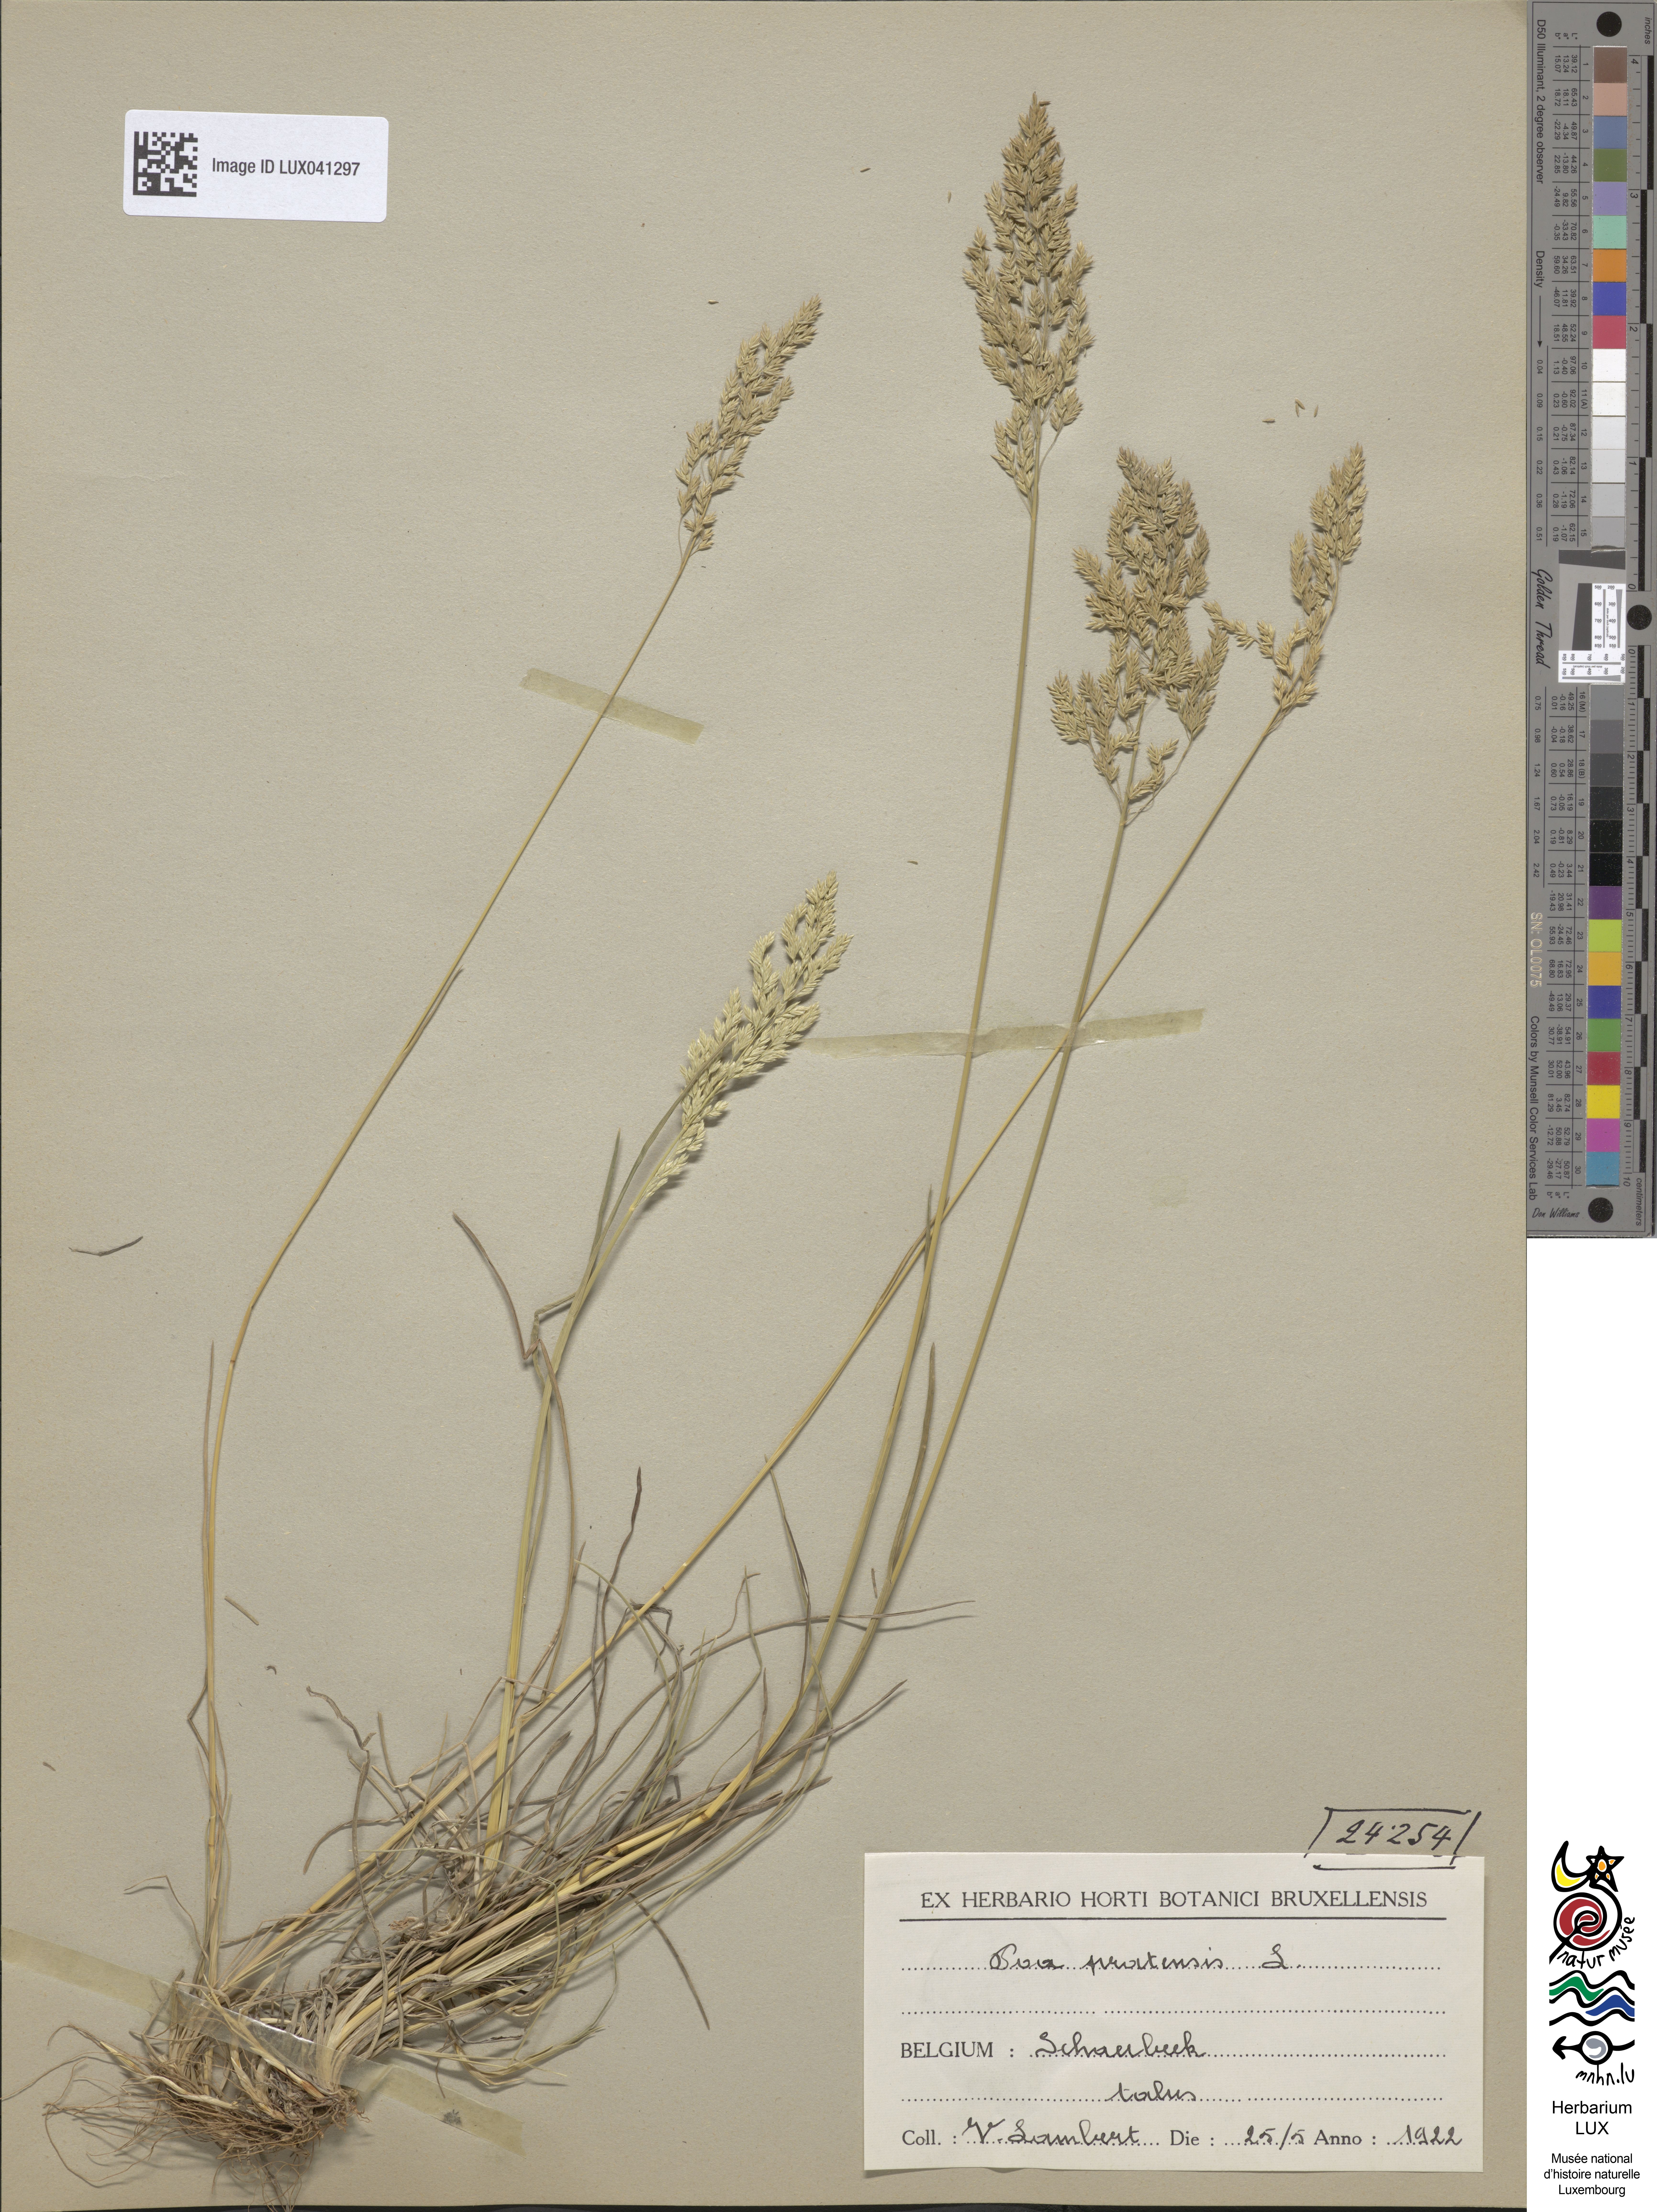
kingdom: Plantae
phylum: Tracheophyta
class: Liliopsida
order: Poales
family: Poaceae
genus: Poa
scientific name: Poa pratensis
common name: Kentucky bluegrass
